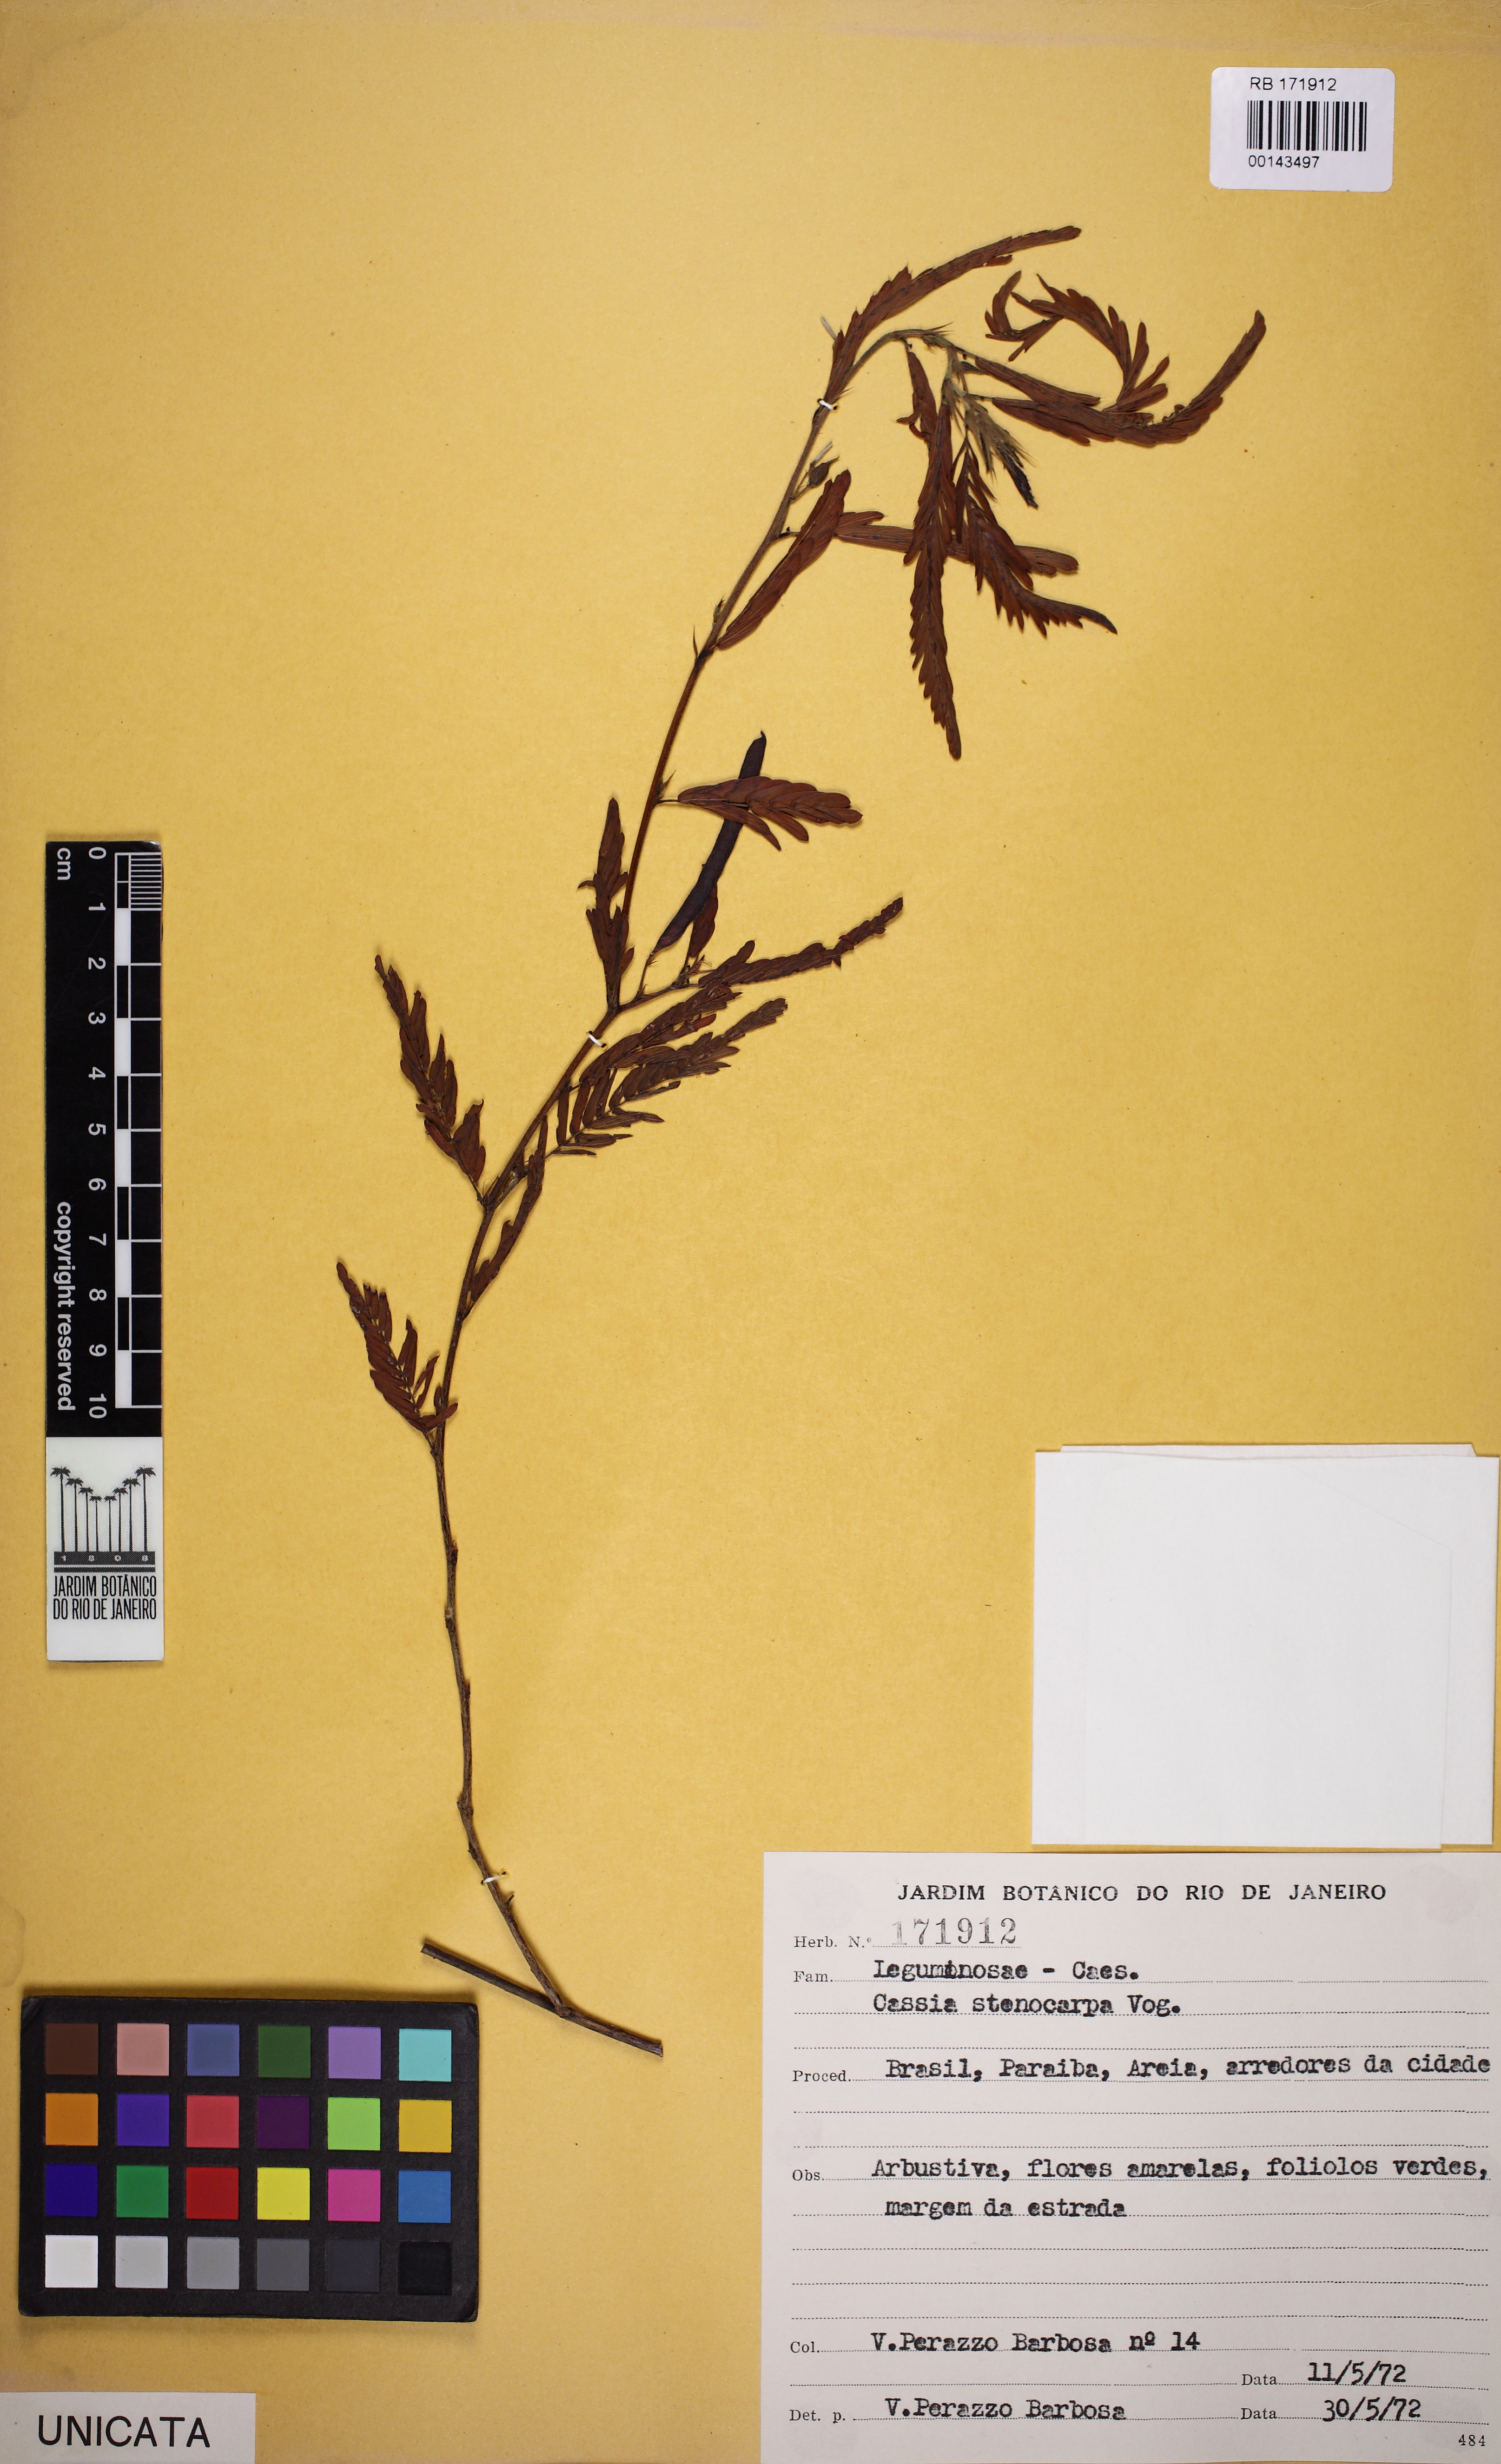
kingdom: Plantae
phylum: Tracheophyta
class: Magnoliopsida
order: Fabales
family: Fabaceae
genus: Chamaecrista
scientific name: Chamaecrista nictitans
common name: Sensitive cassia
